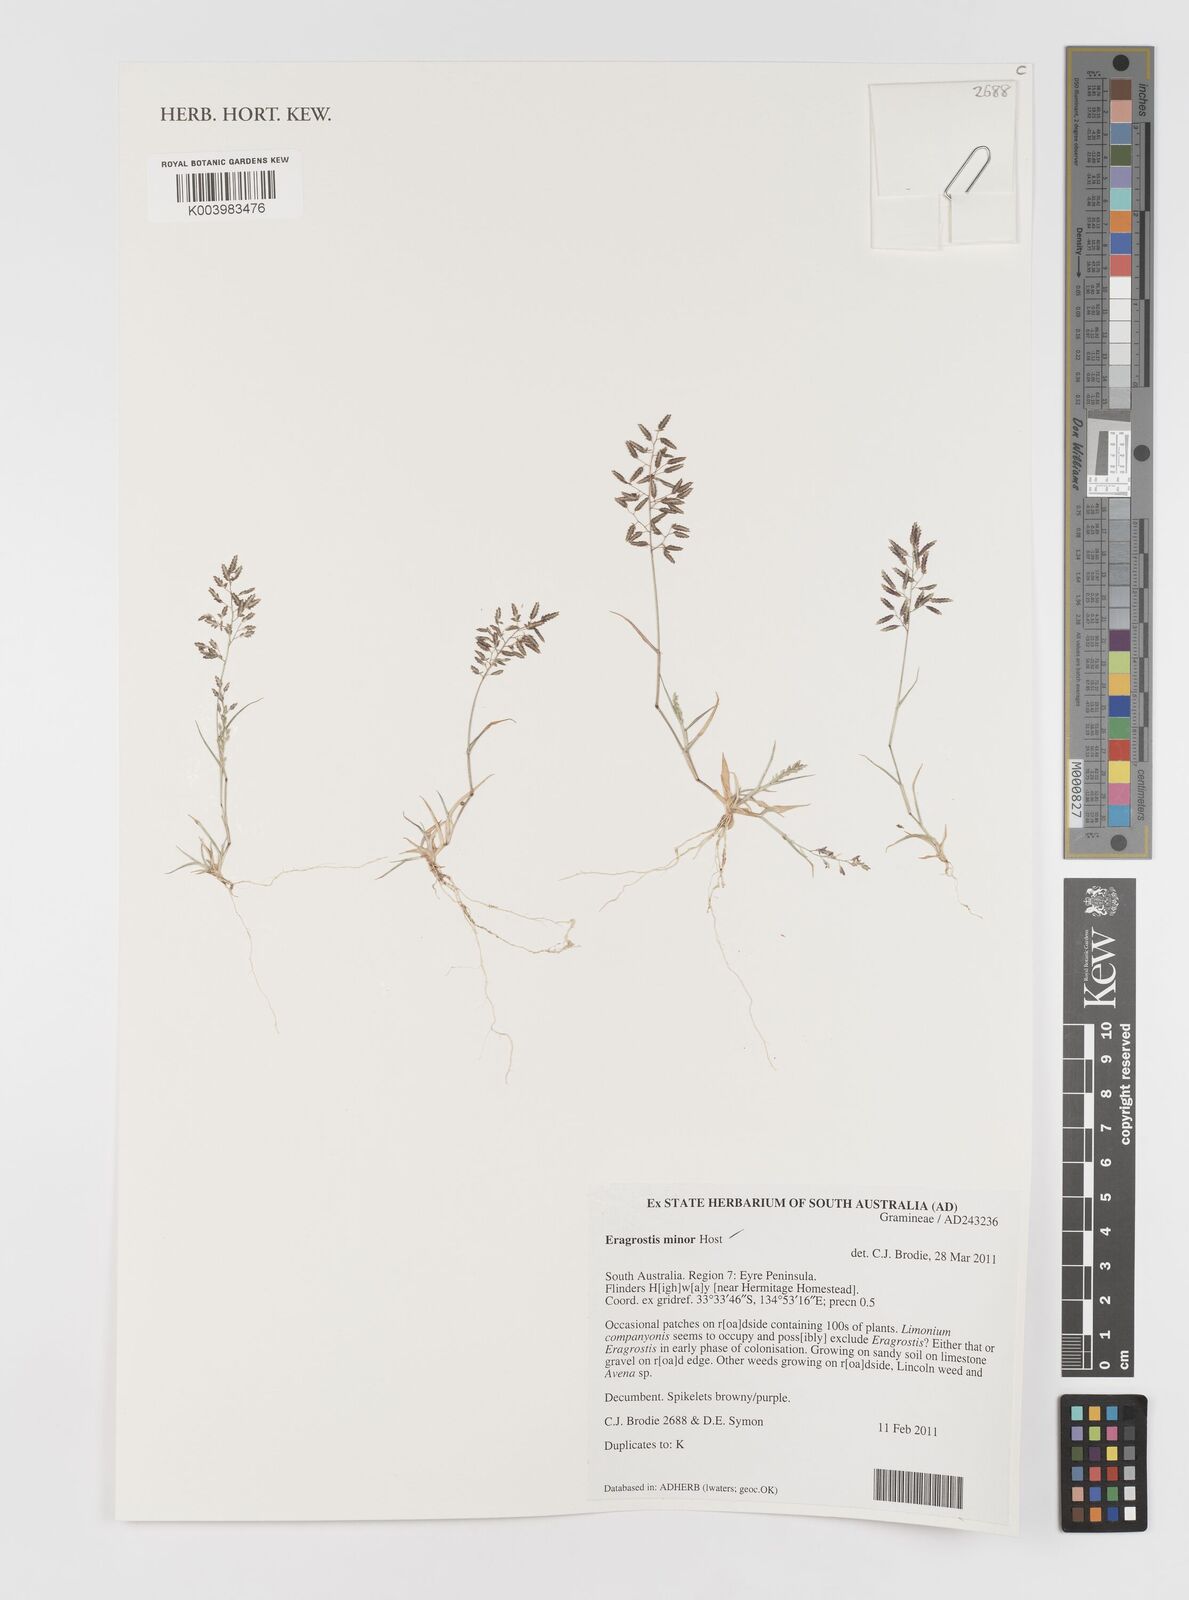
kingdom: Plantae
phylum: Tracheophyta
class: Liliopsida
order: Poales
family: Poaceae
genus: Eragrostis
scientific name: Eragrostis minor
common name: Small love-grass
